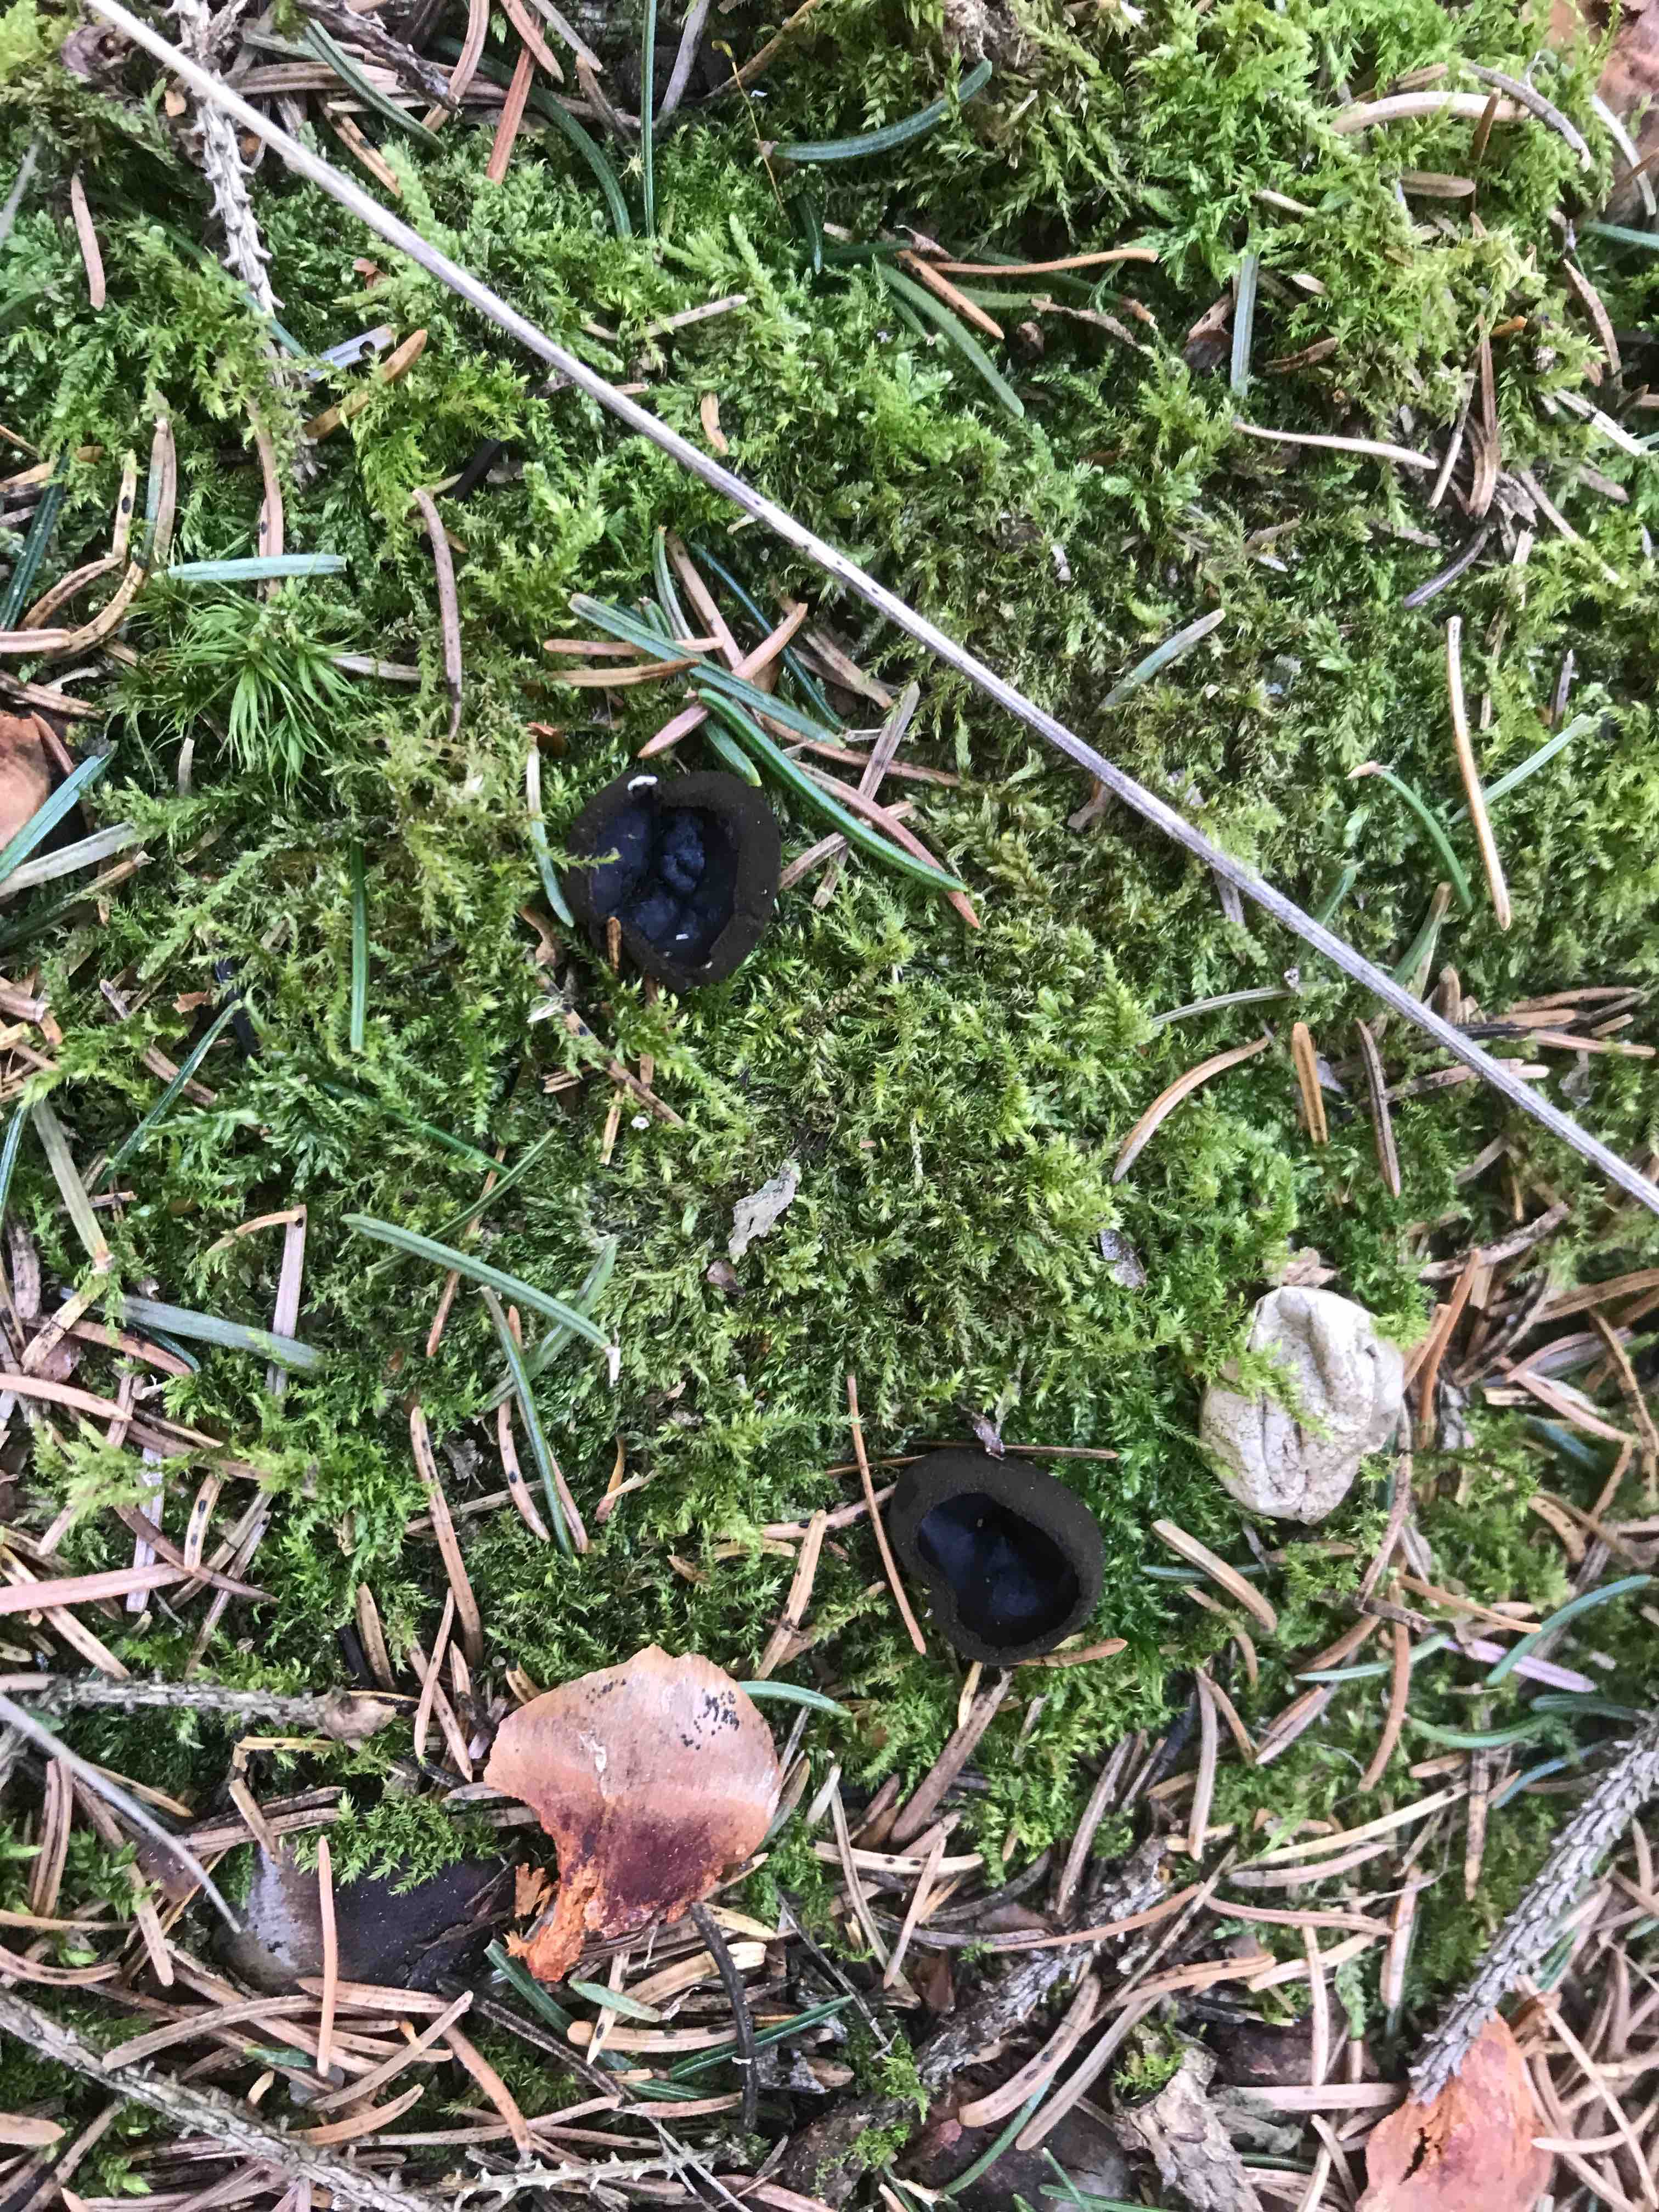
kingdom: Fungi
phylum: Ascomycota
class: Pezizomycetes
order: Pezizales
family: Sarcosomataceae
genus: Pseudoplectania
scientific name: Pseudoplectania nigrella
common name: almindelig sortbæger
